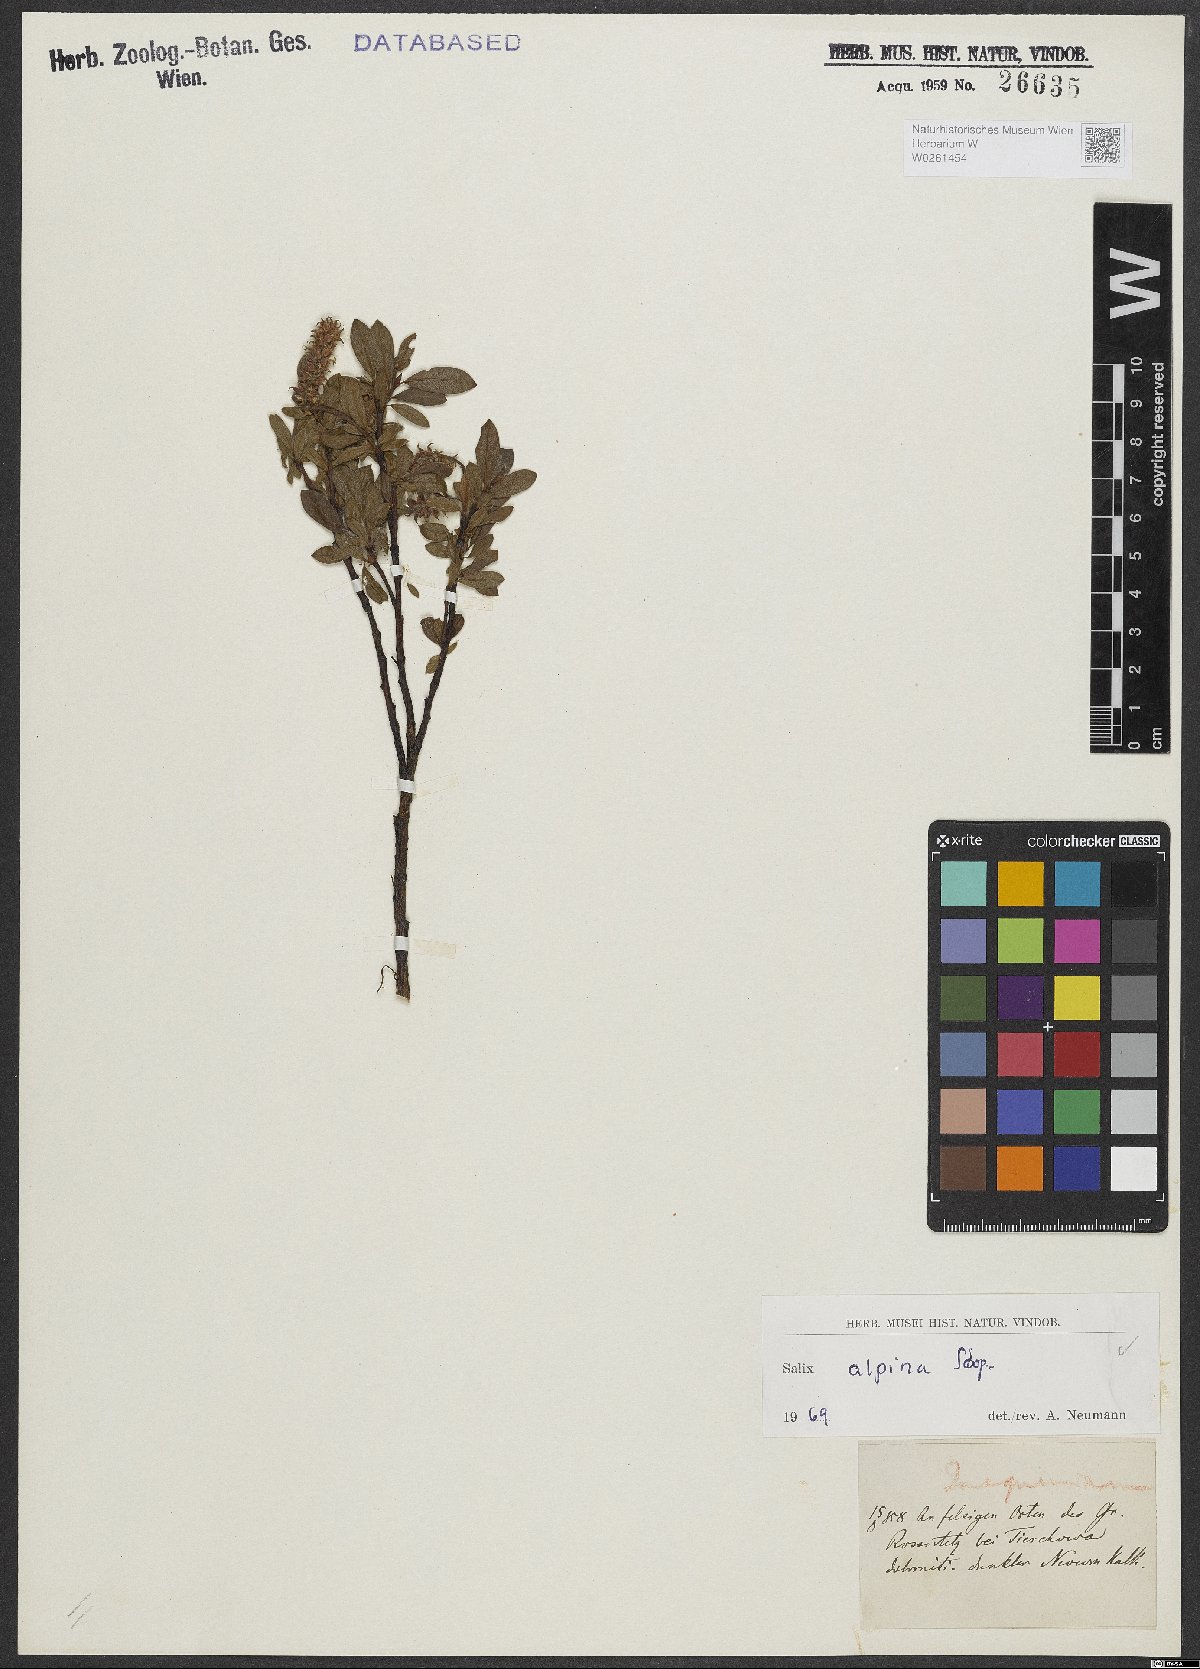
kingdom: Plantae
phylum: Tracheophyta
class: Magnoliopsida
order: Malpighiales
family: Salicaceae
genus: Salix
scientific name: Salix alpina
